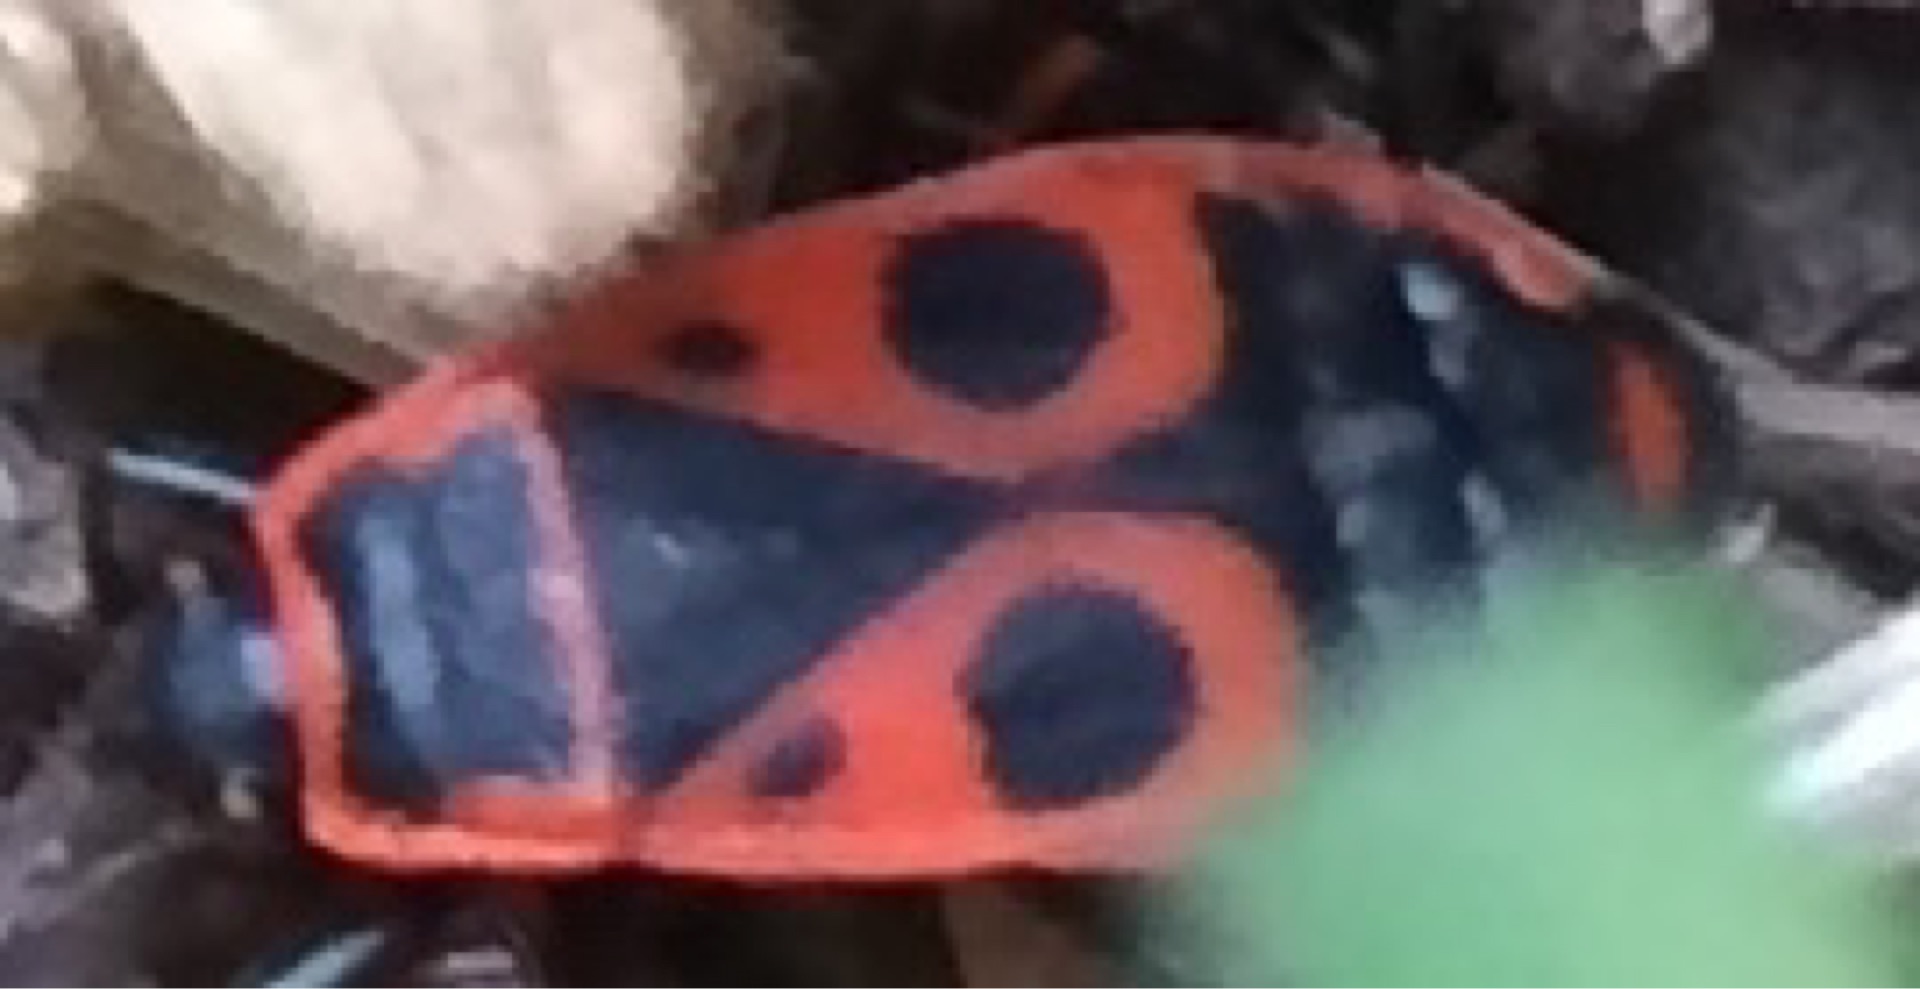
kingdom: Animalia
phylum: Arthropoda
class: Insecta
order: Hemiptera
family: Pyrrhocoridae
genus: Pyrrhocoris
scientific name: Pyrrhocoris apterus
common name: Ildtæge
